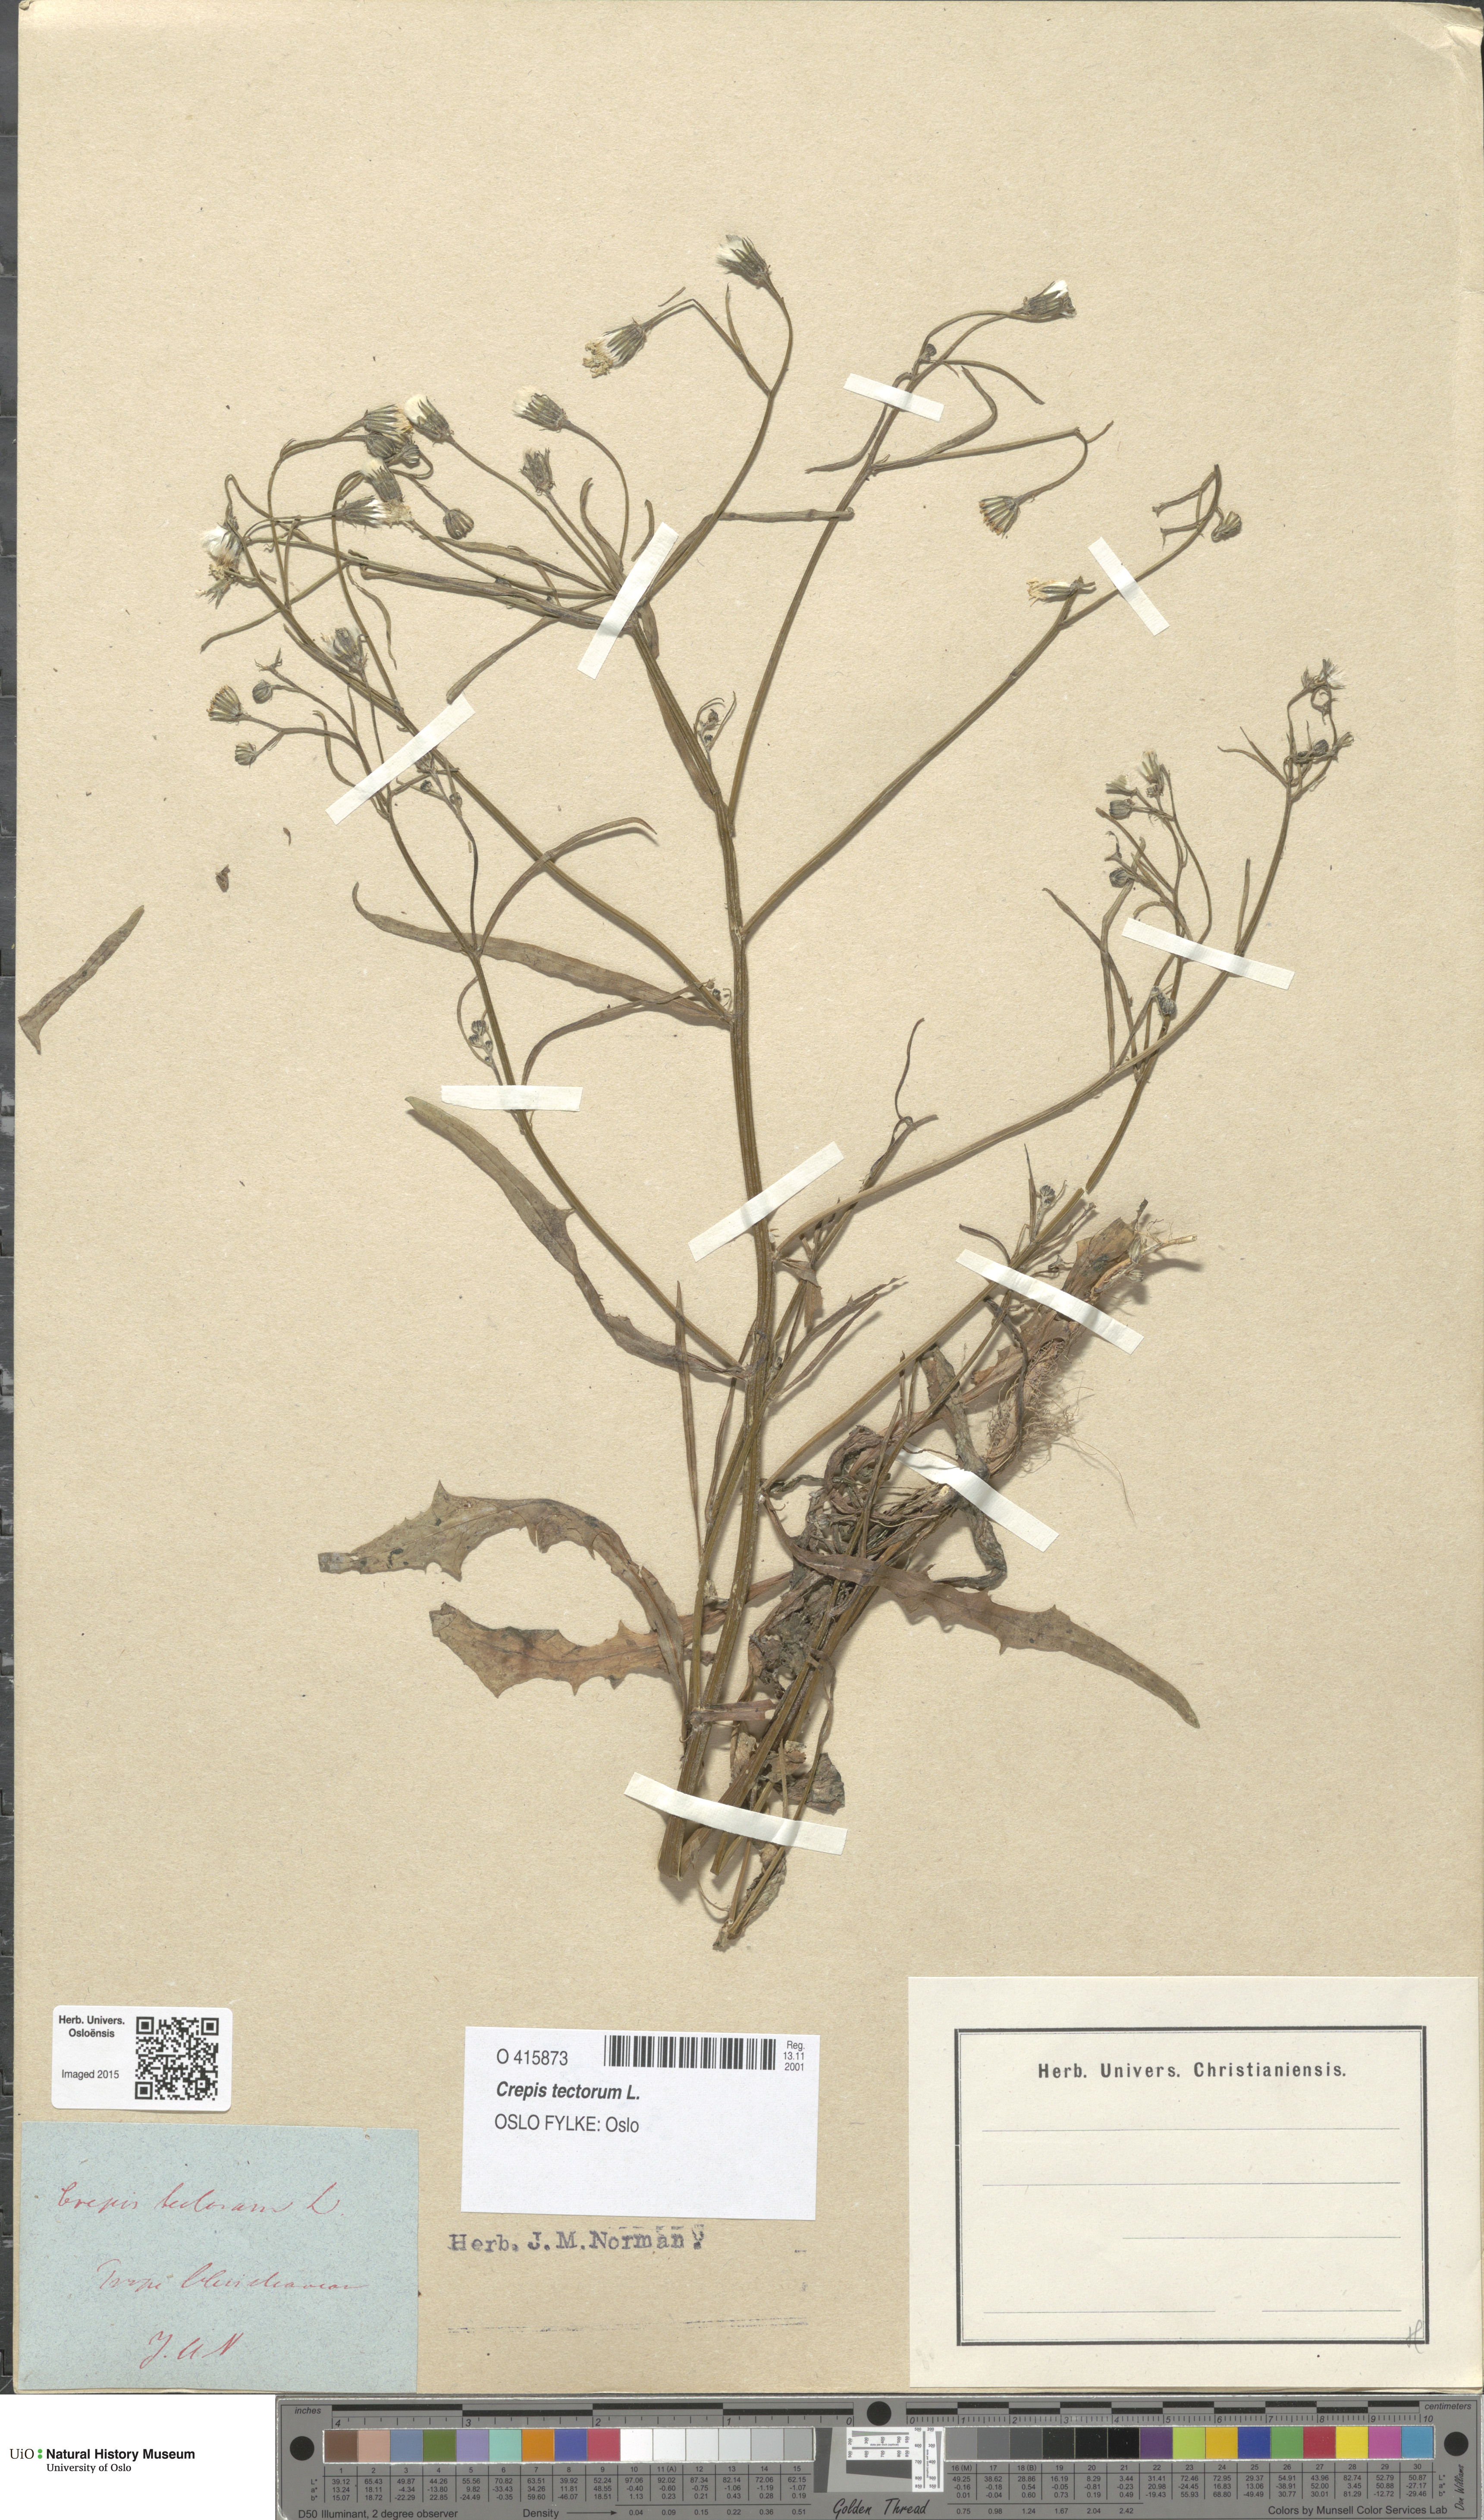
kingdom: Plantae
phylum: Tracheophyta
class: Magnoliopsida
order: Asterales
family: Asteraceae
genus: Crepis
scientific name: Crepis tectorum
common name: Narrow-leaved hawk's-beard
